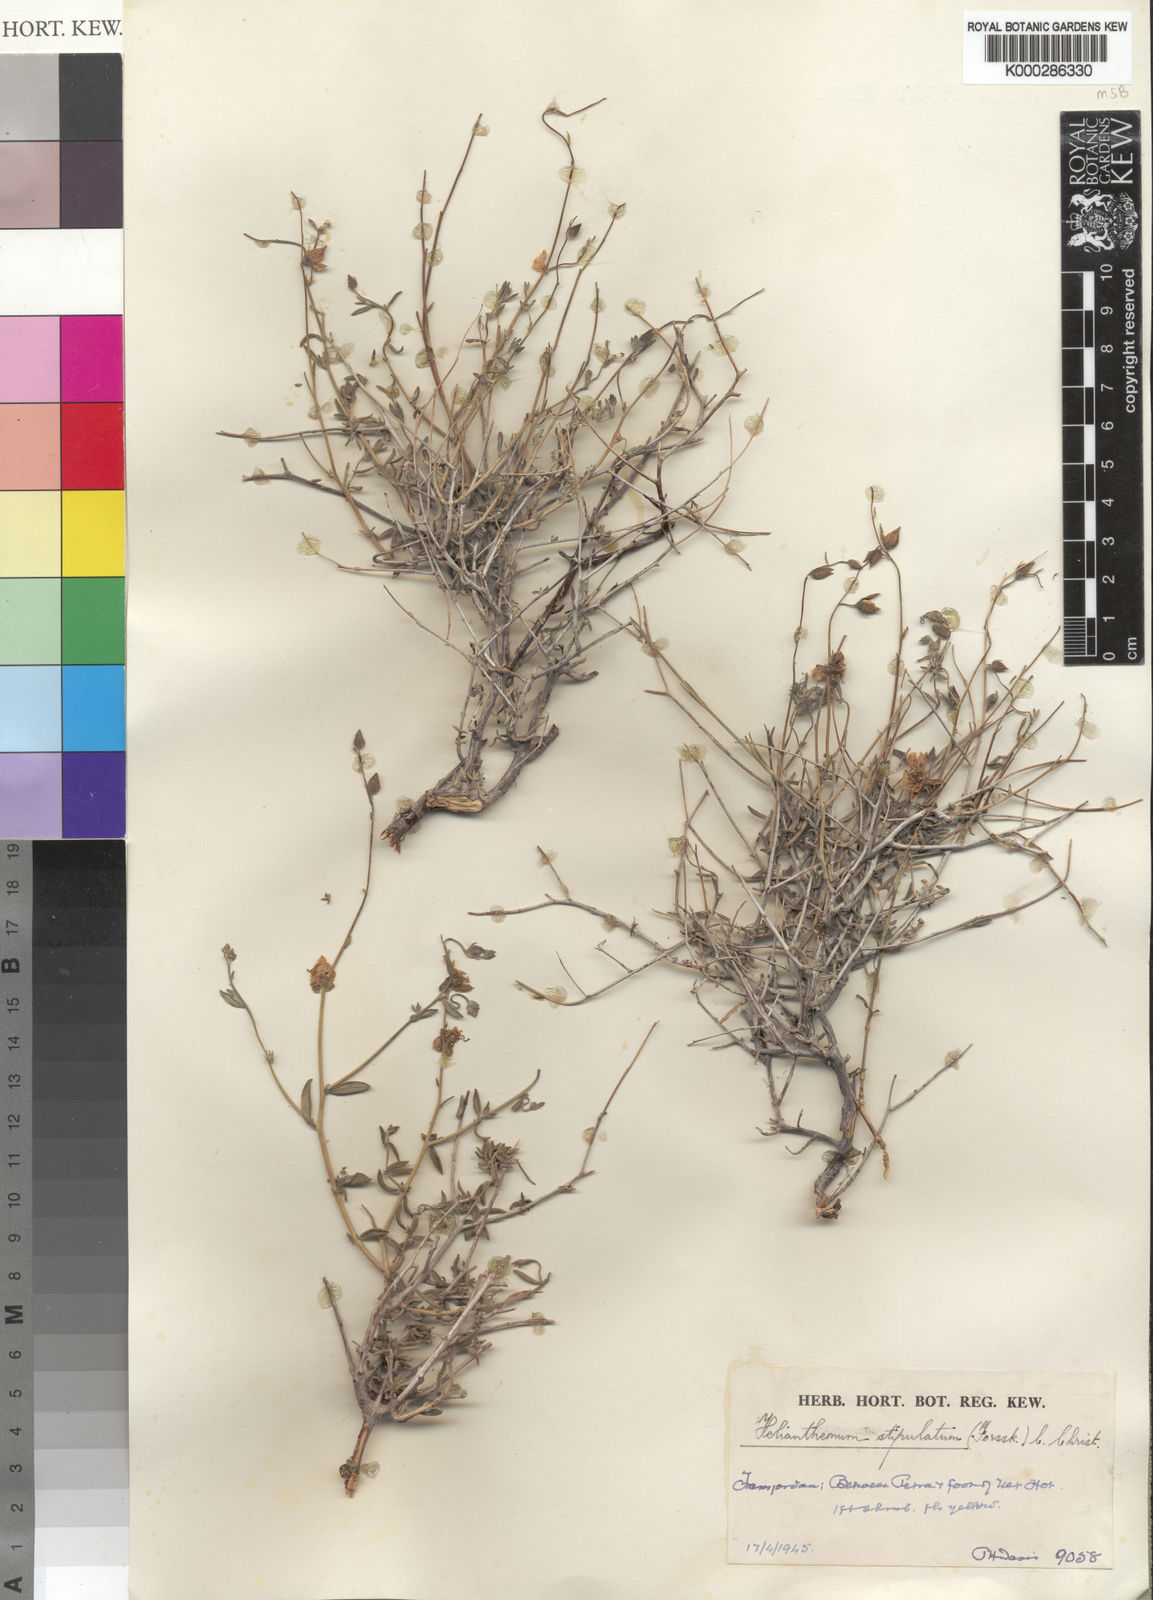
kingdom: Plantae
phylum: Tracheophyta
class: Magnoliopsida
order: Malvales
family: Cistaceae
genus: Helianthemum
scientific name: Helianthemum stipulatum
